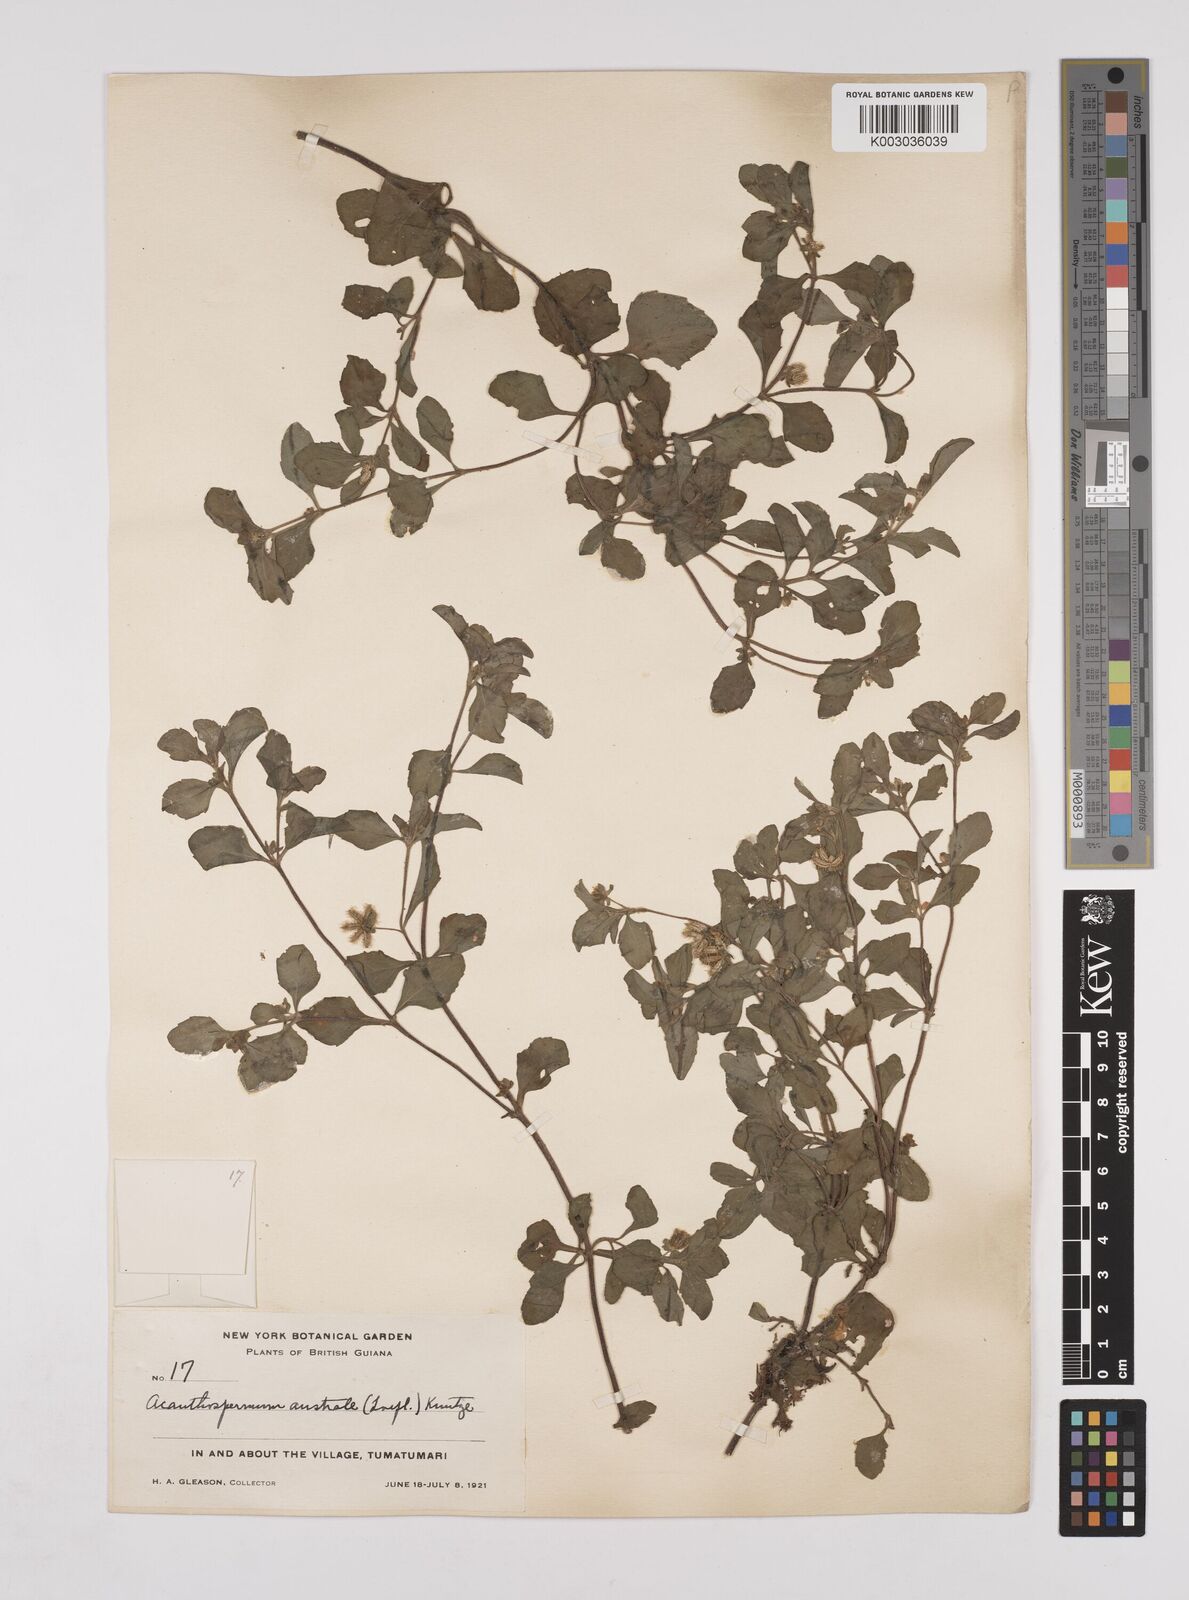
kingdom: Plantae
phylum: Tracheophyta
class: Magnoliopsida
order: Asterales
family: Asteraceae
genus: Acanthospermum
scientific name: Acanthospermum australe
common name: Paraguayan starbur
